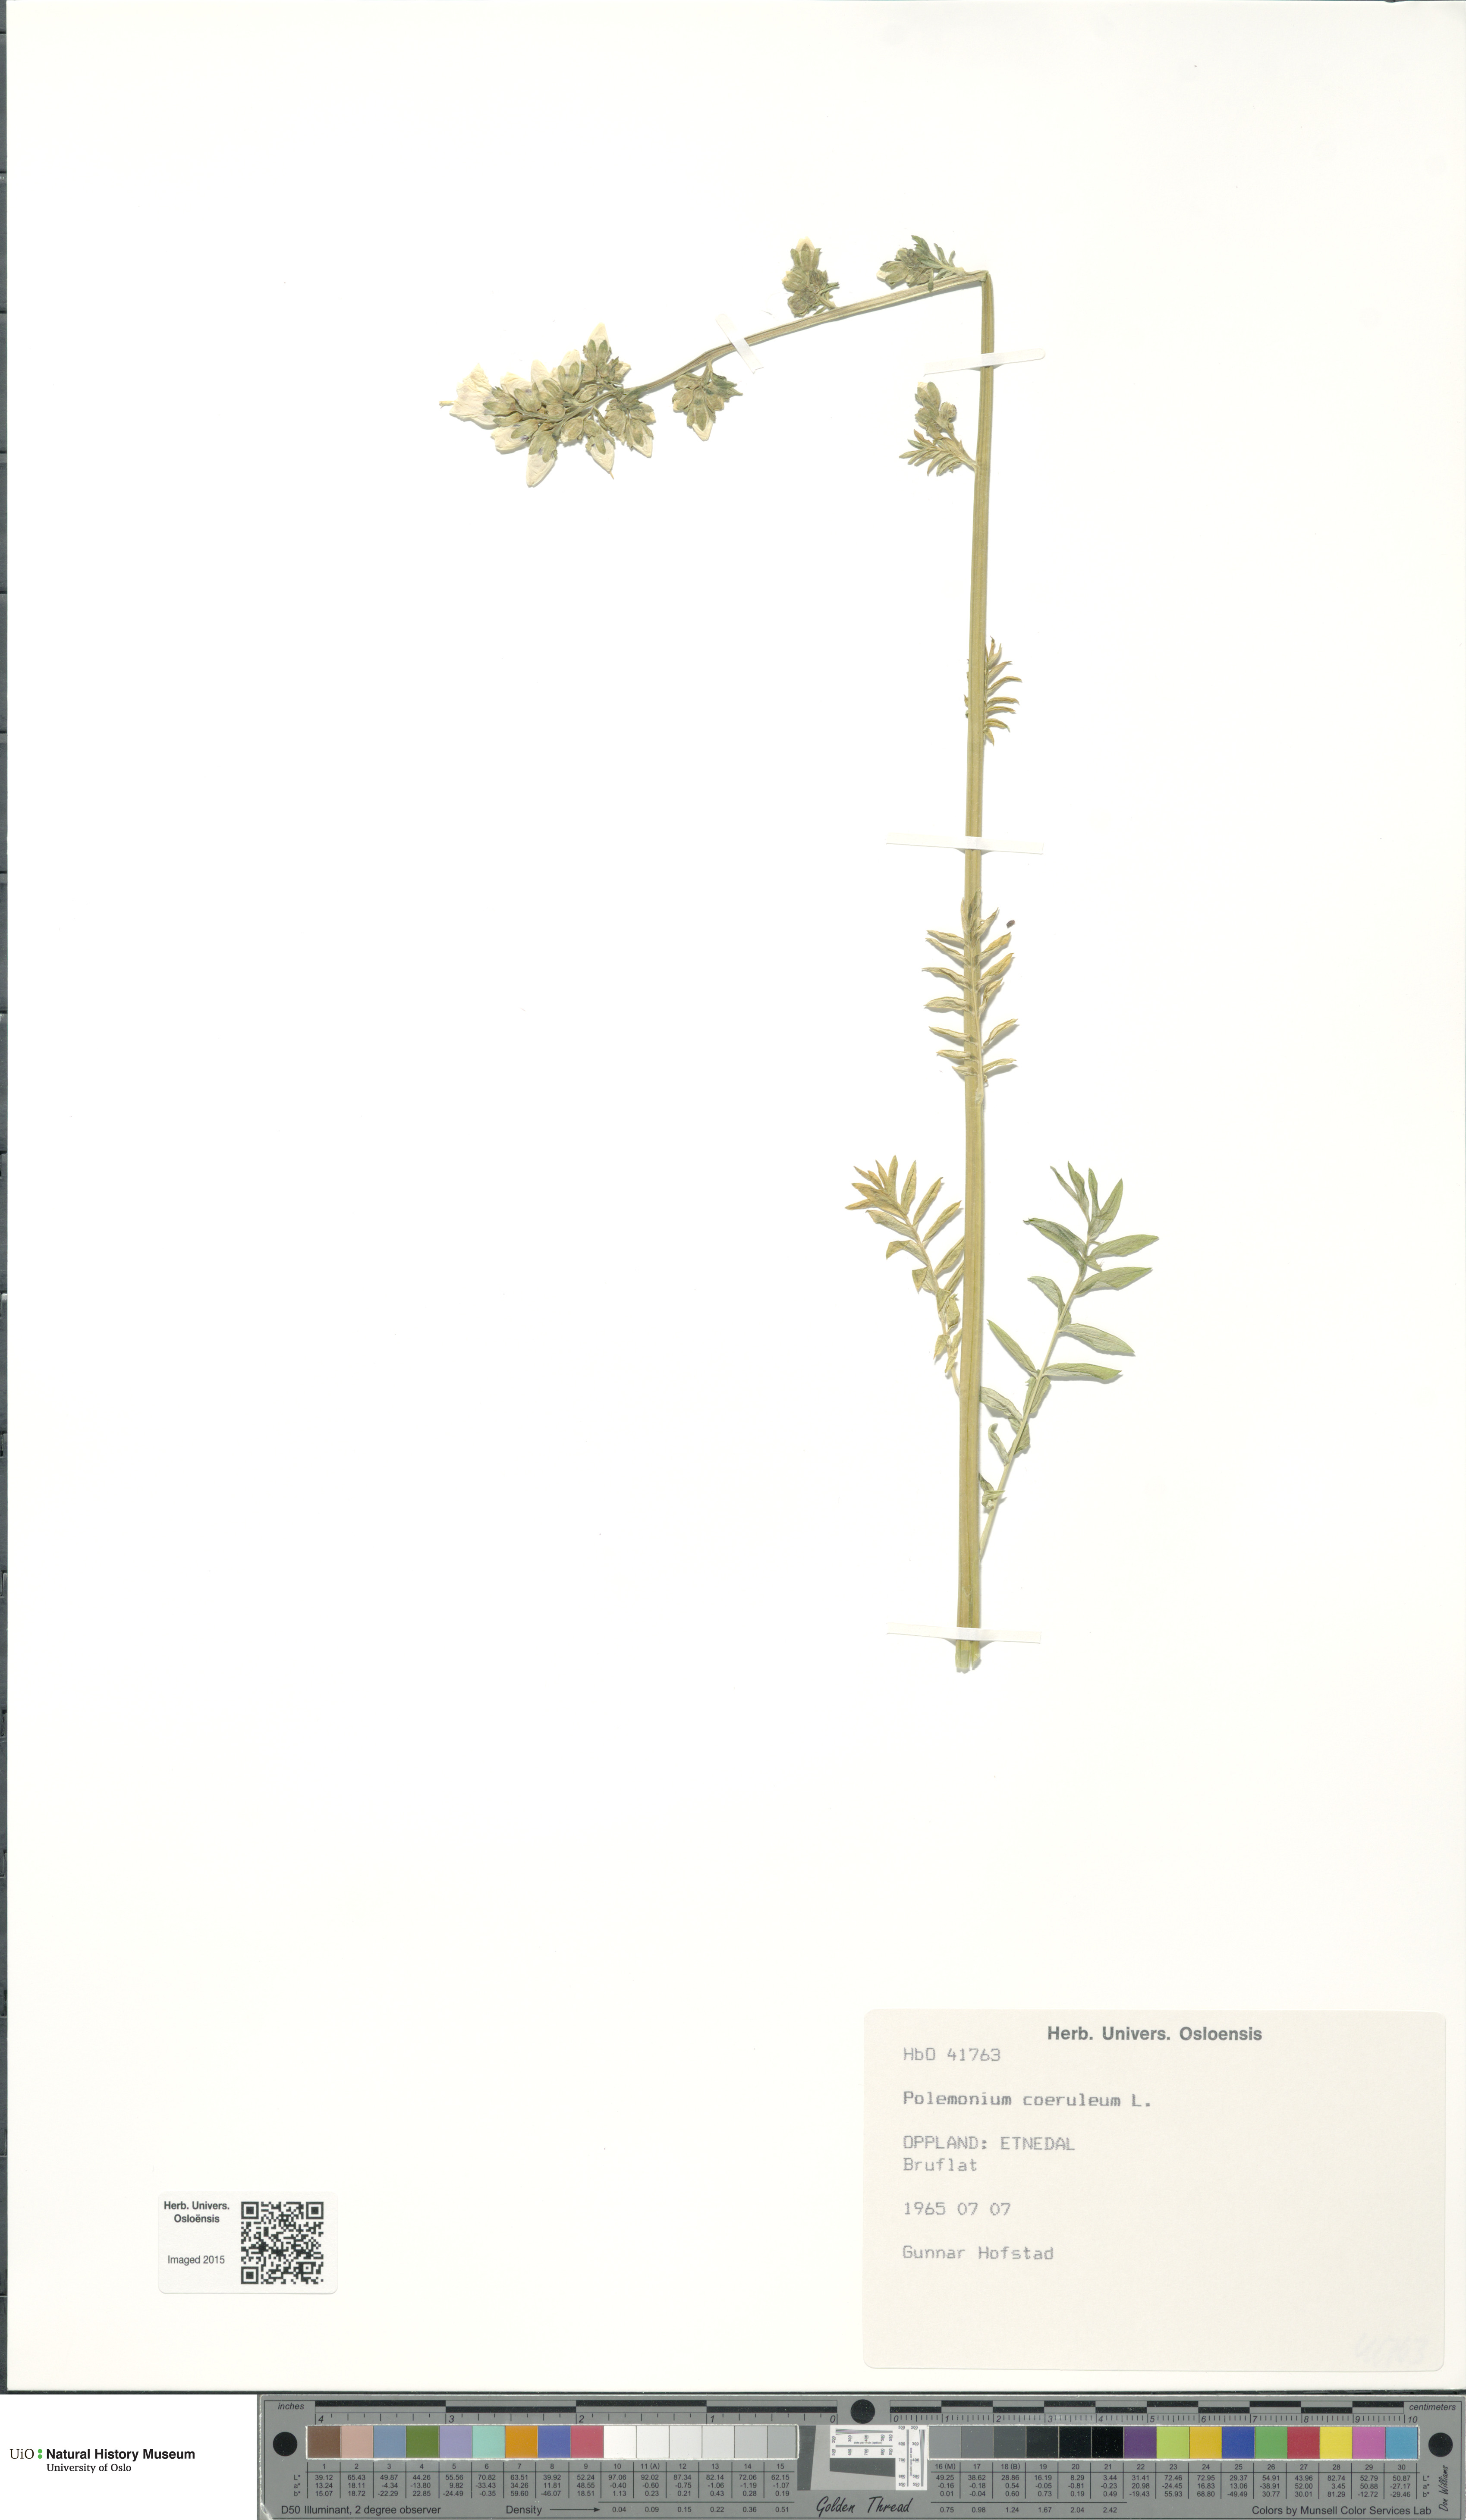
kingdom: Plantae
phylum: Tracheophyta
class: Magnoliopsida
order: Ericales
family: Polemoniaceae
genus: Polemonium
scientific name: Polemonium caeruleum
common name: Jacob's-ladder
